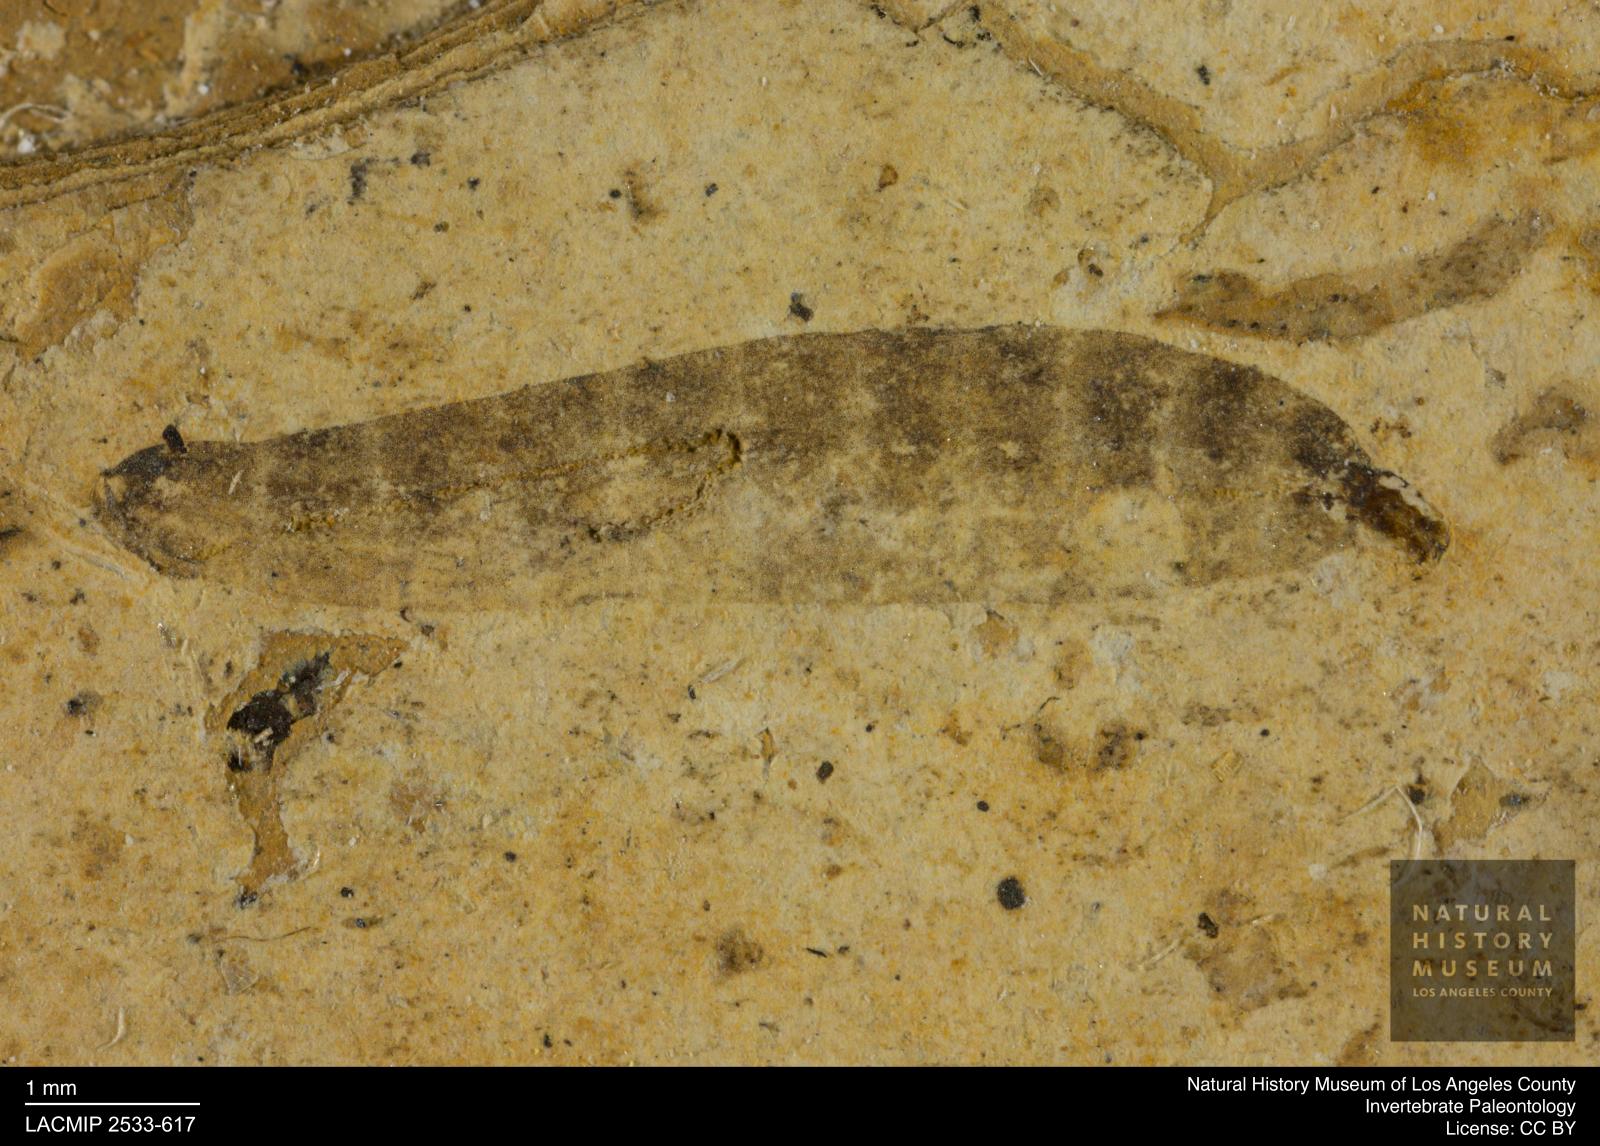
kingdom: Animalia
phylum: Arthropoda
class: Insecta
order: Diptera
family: Stratiomyidae
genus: Odontomyia
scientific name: Odontomyia
